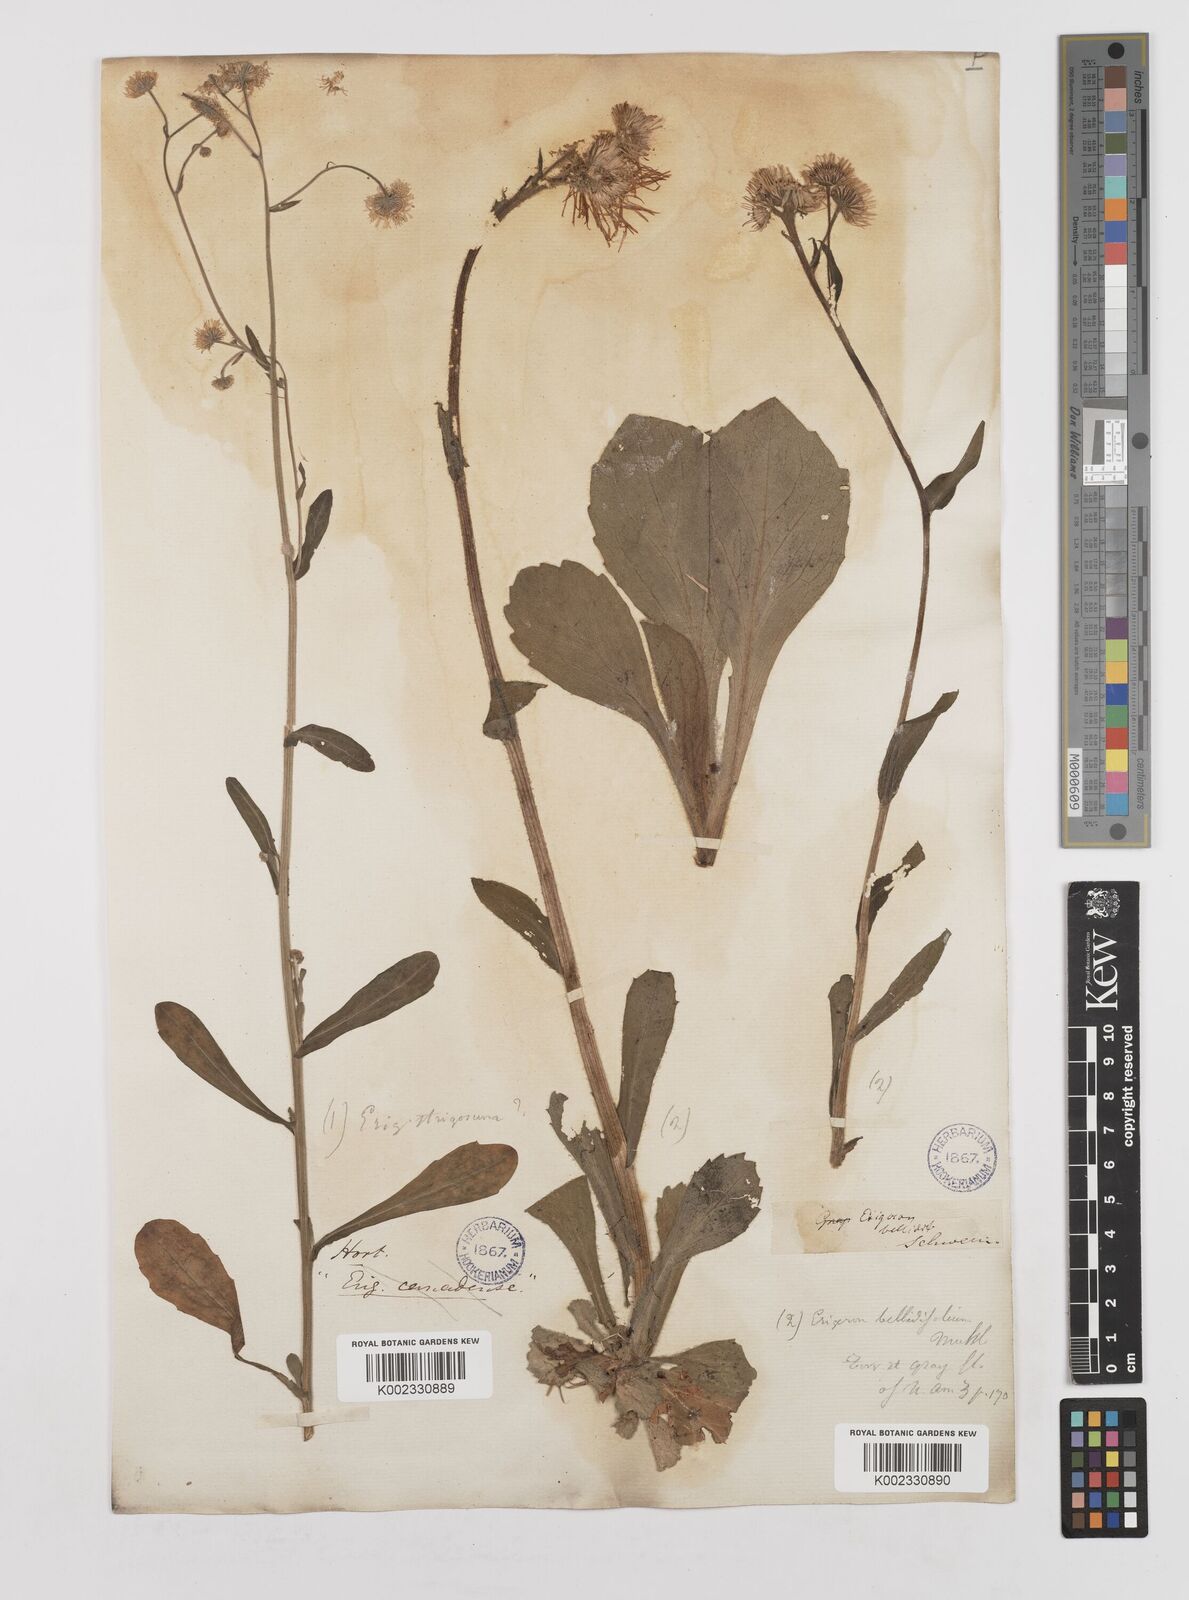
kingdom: Plantae
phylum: Tracheophyta
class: Magnoliopsida
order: Asterales
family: Asteraceae
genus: Erigeron
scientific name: Erigeron pulchellus
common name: Hairy fleabane
